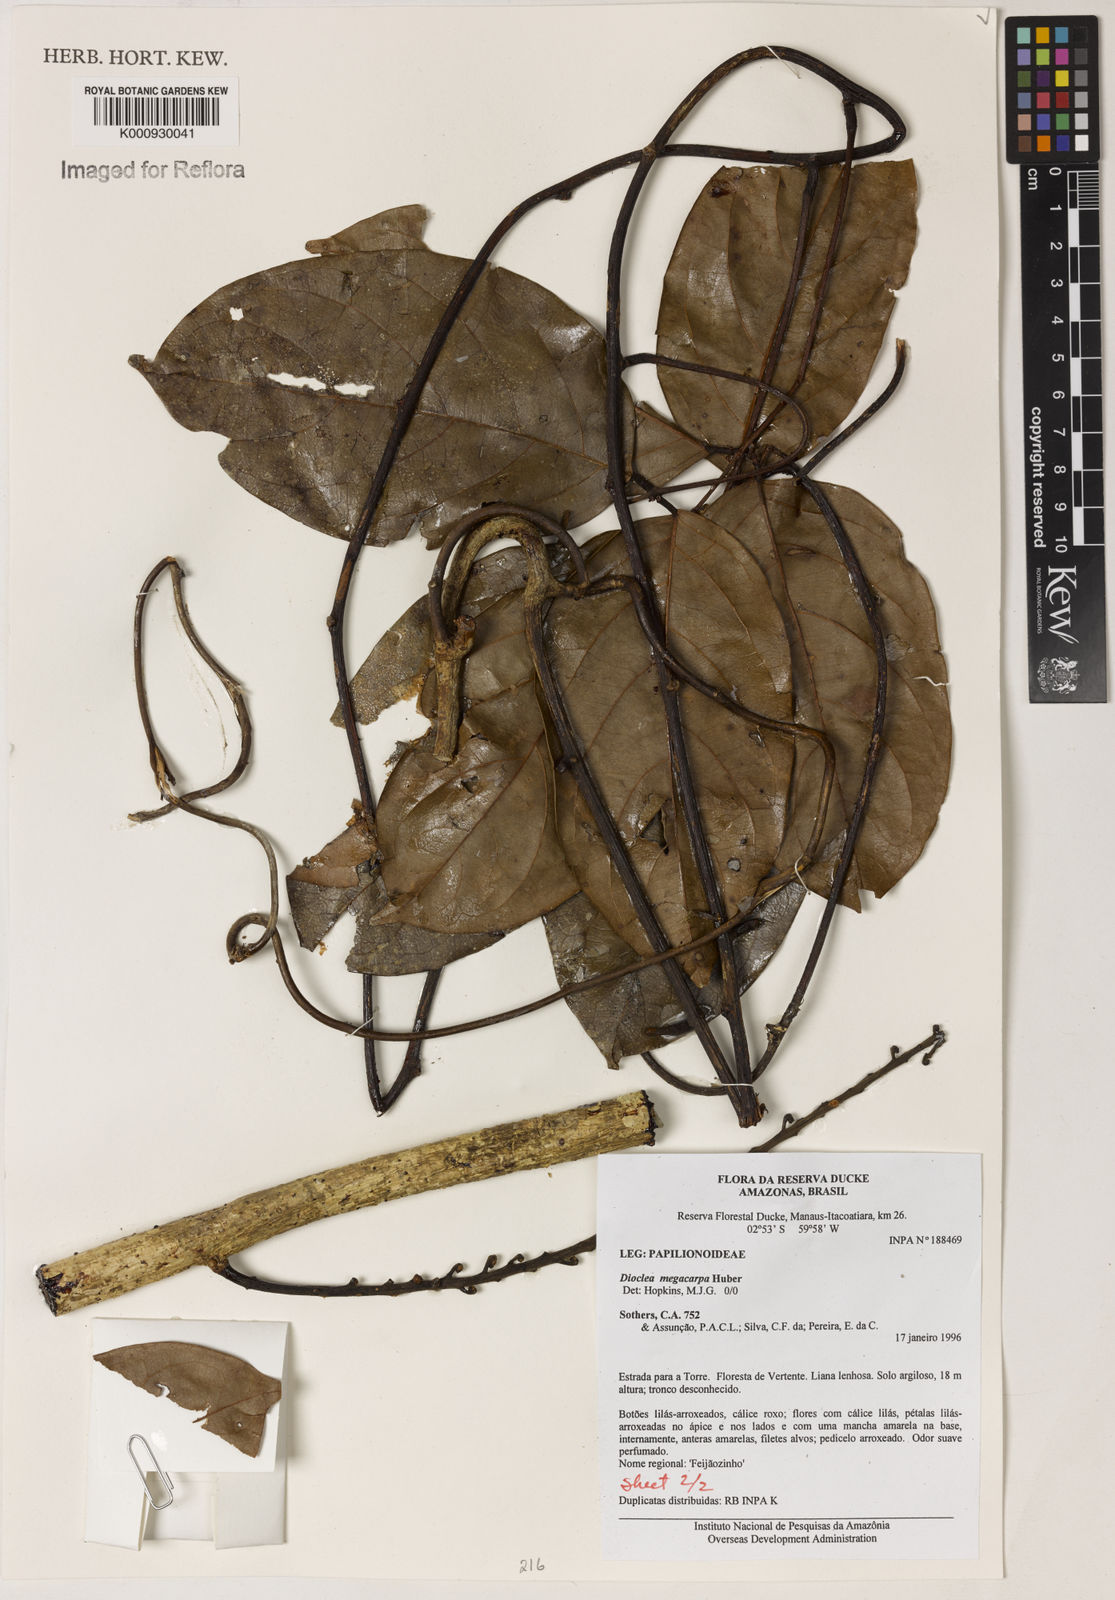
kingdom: Plantae
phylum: Tracheophyta
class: Magnoliopsida
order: Fabales
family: Fabaceae
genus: Macropsychanthus
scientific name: Macropsychanthus megacarpus
